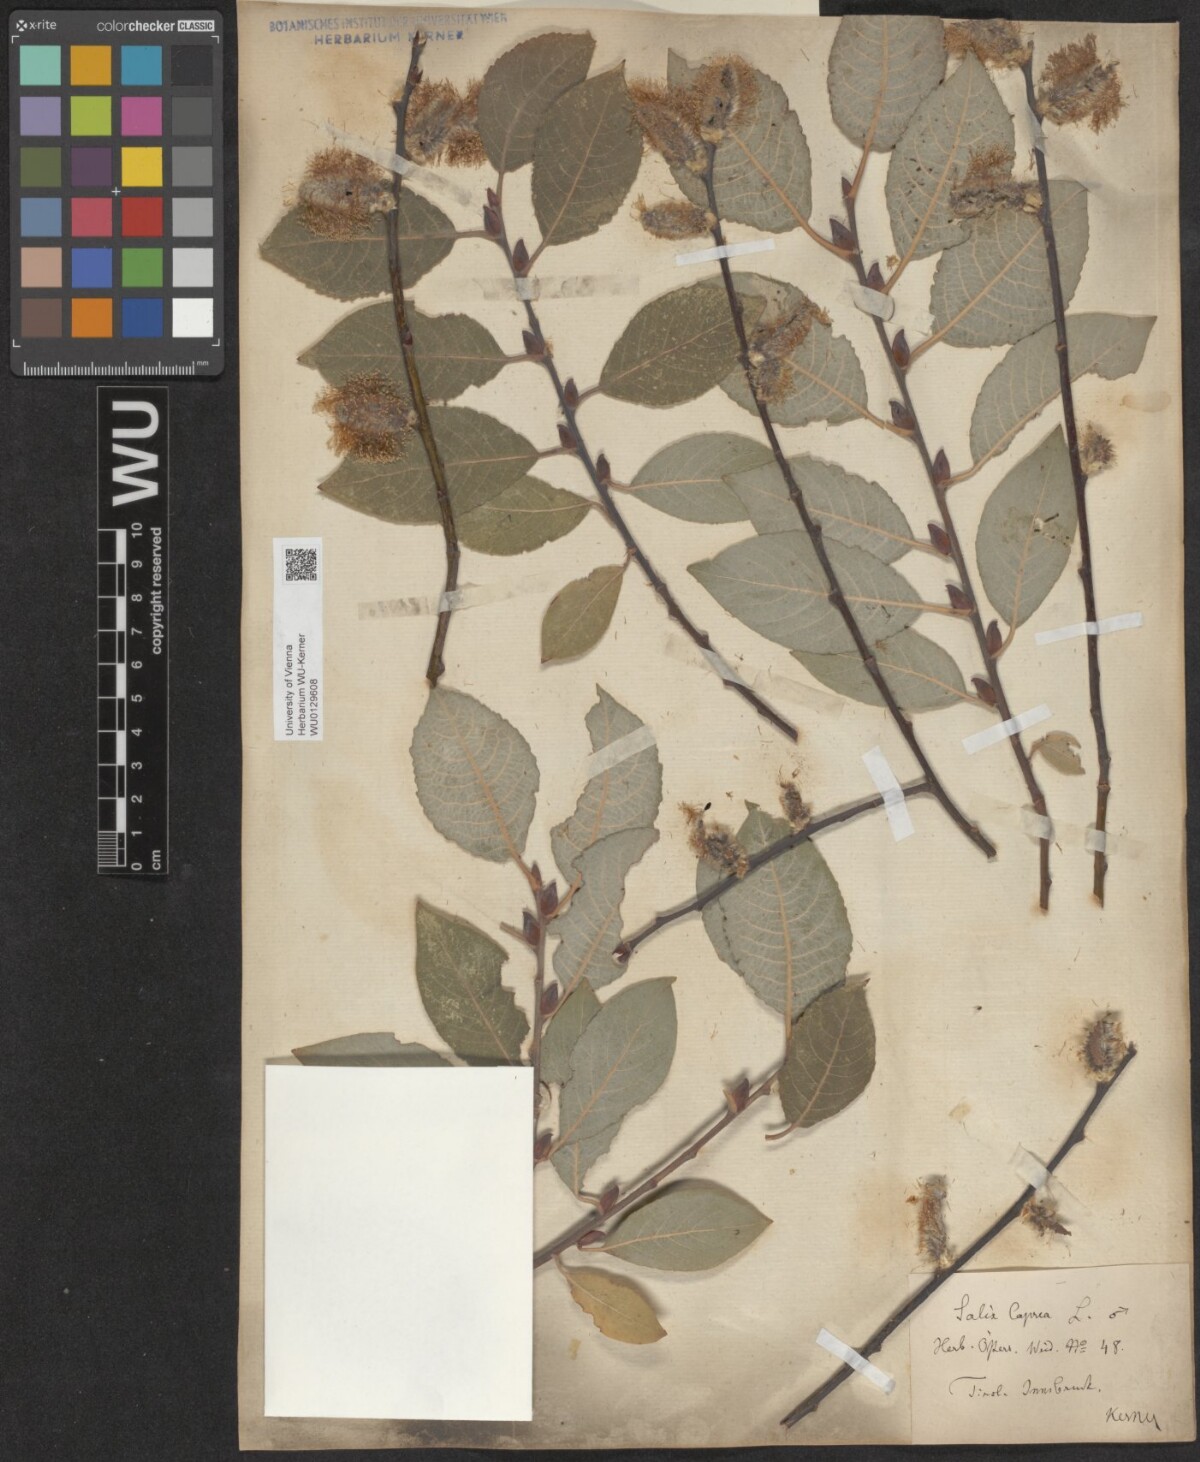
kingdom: Plantae
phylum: Tracheophyta
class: Magnoliopsida
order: Malpighiales
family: Salicaceae
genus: Salix
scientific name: Salix caprea
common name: Goat willow
